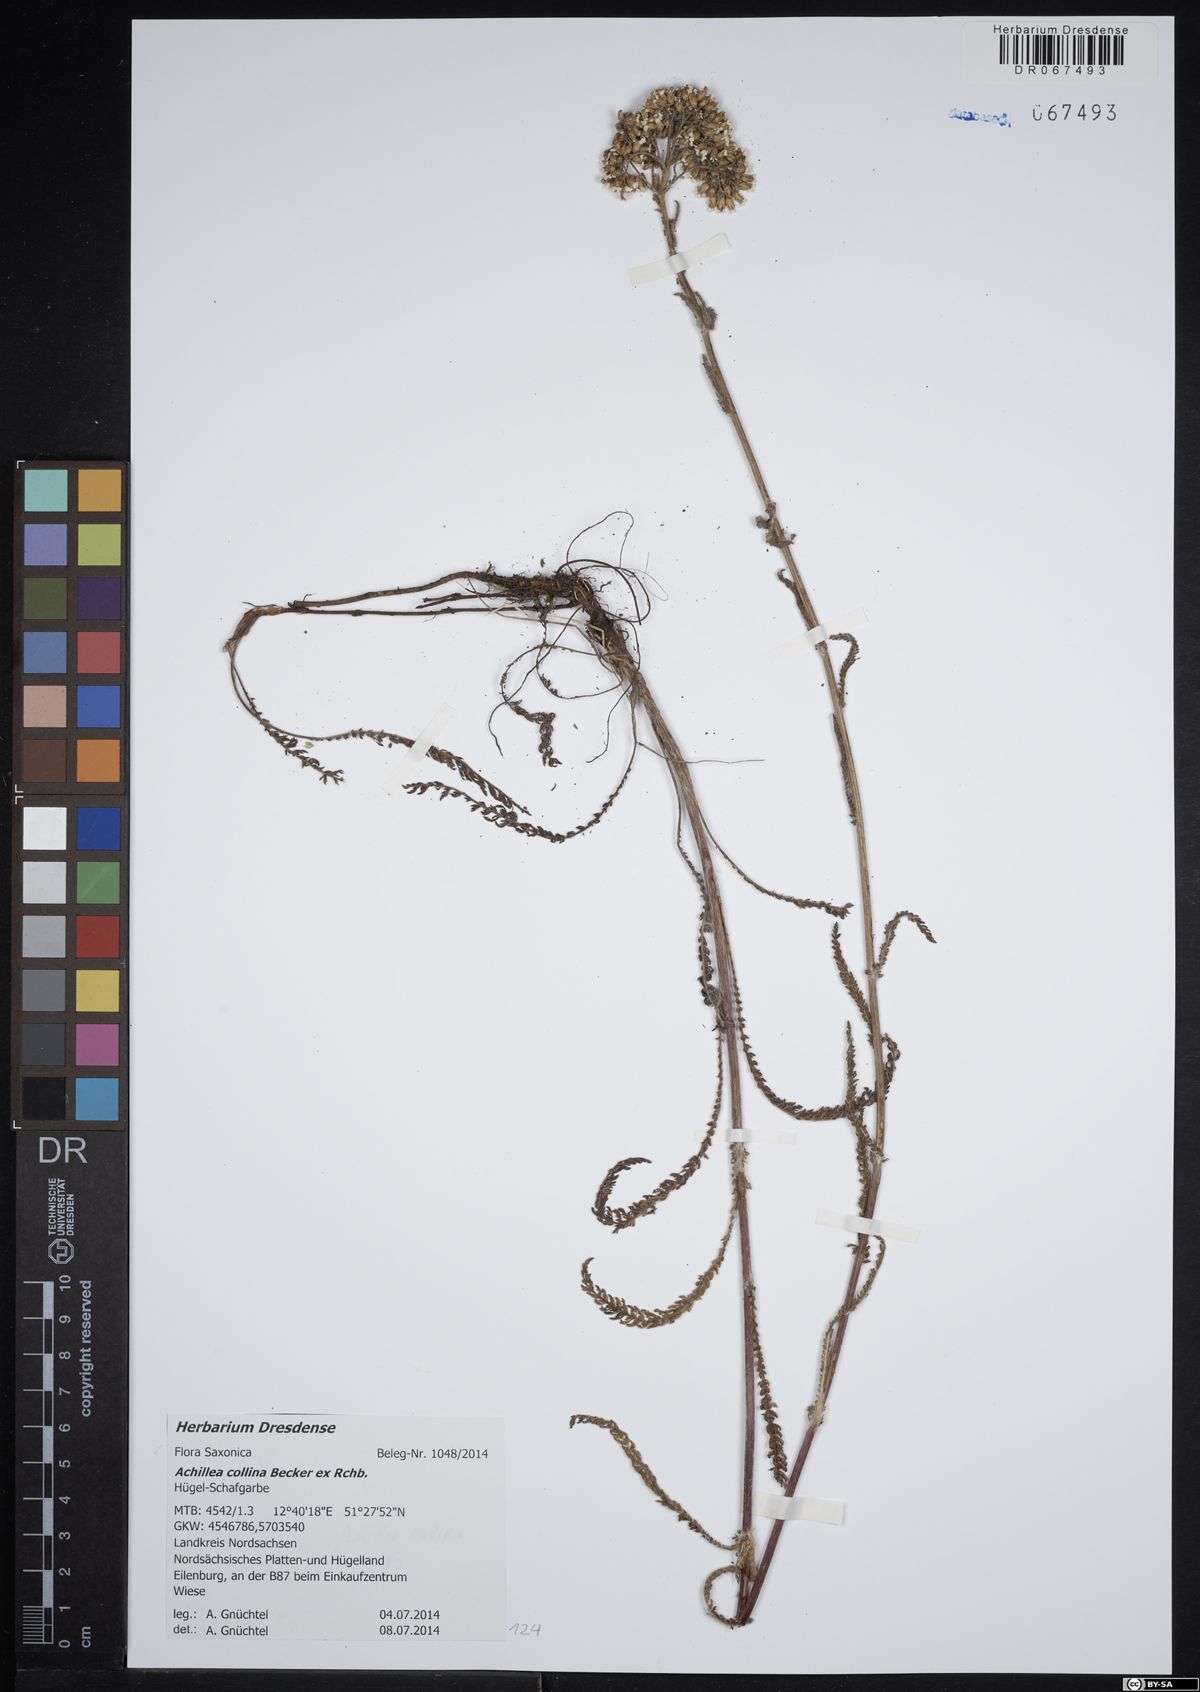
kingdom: Plantae
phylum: Tracheophyta
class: Magnoliopsida
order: Asterales
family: Asteraceae
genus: Achillea
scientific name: Achillea collina
